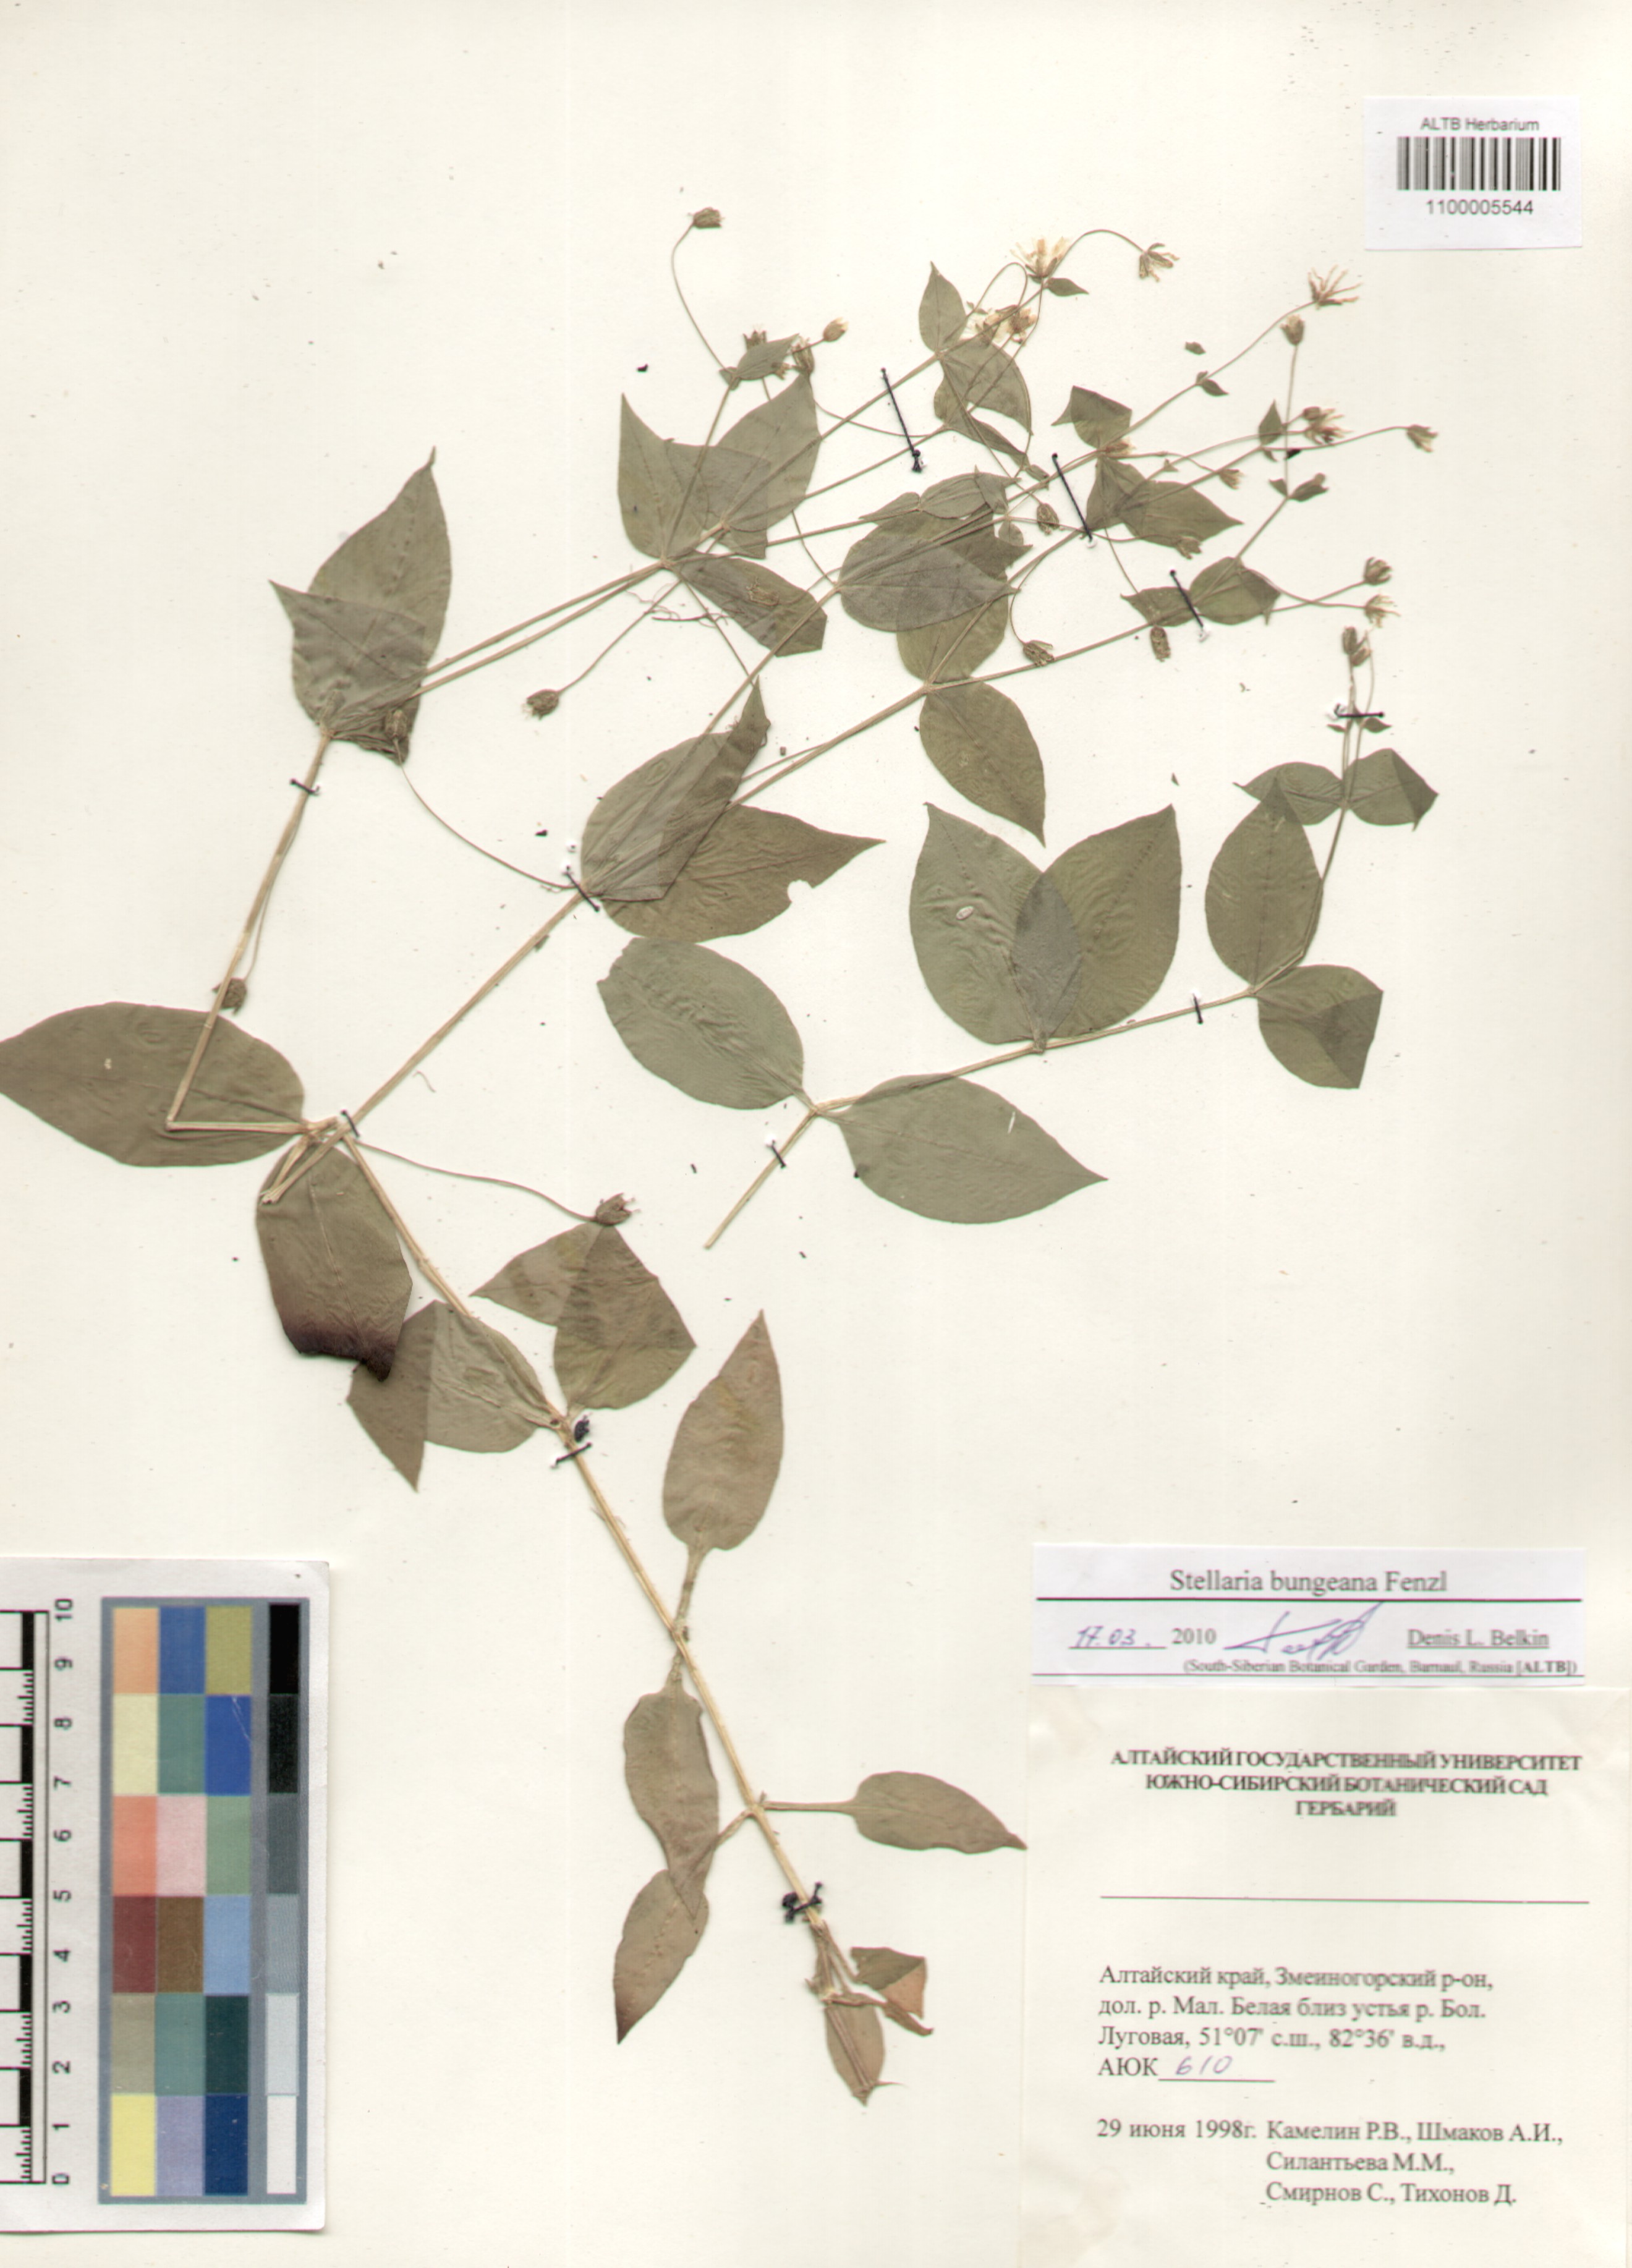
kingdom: Plantae
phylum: Tracheophyta
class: Magnoliopsida
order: Caryophyllales
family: Caryophyllaceae
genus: Stellaria
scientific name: Stellaria bungeana
